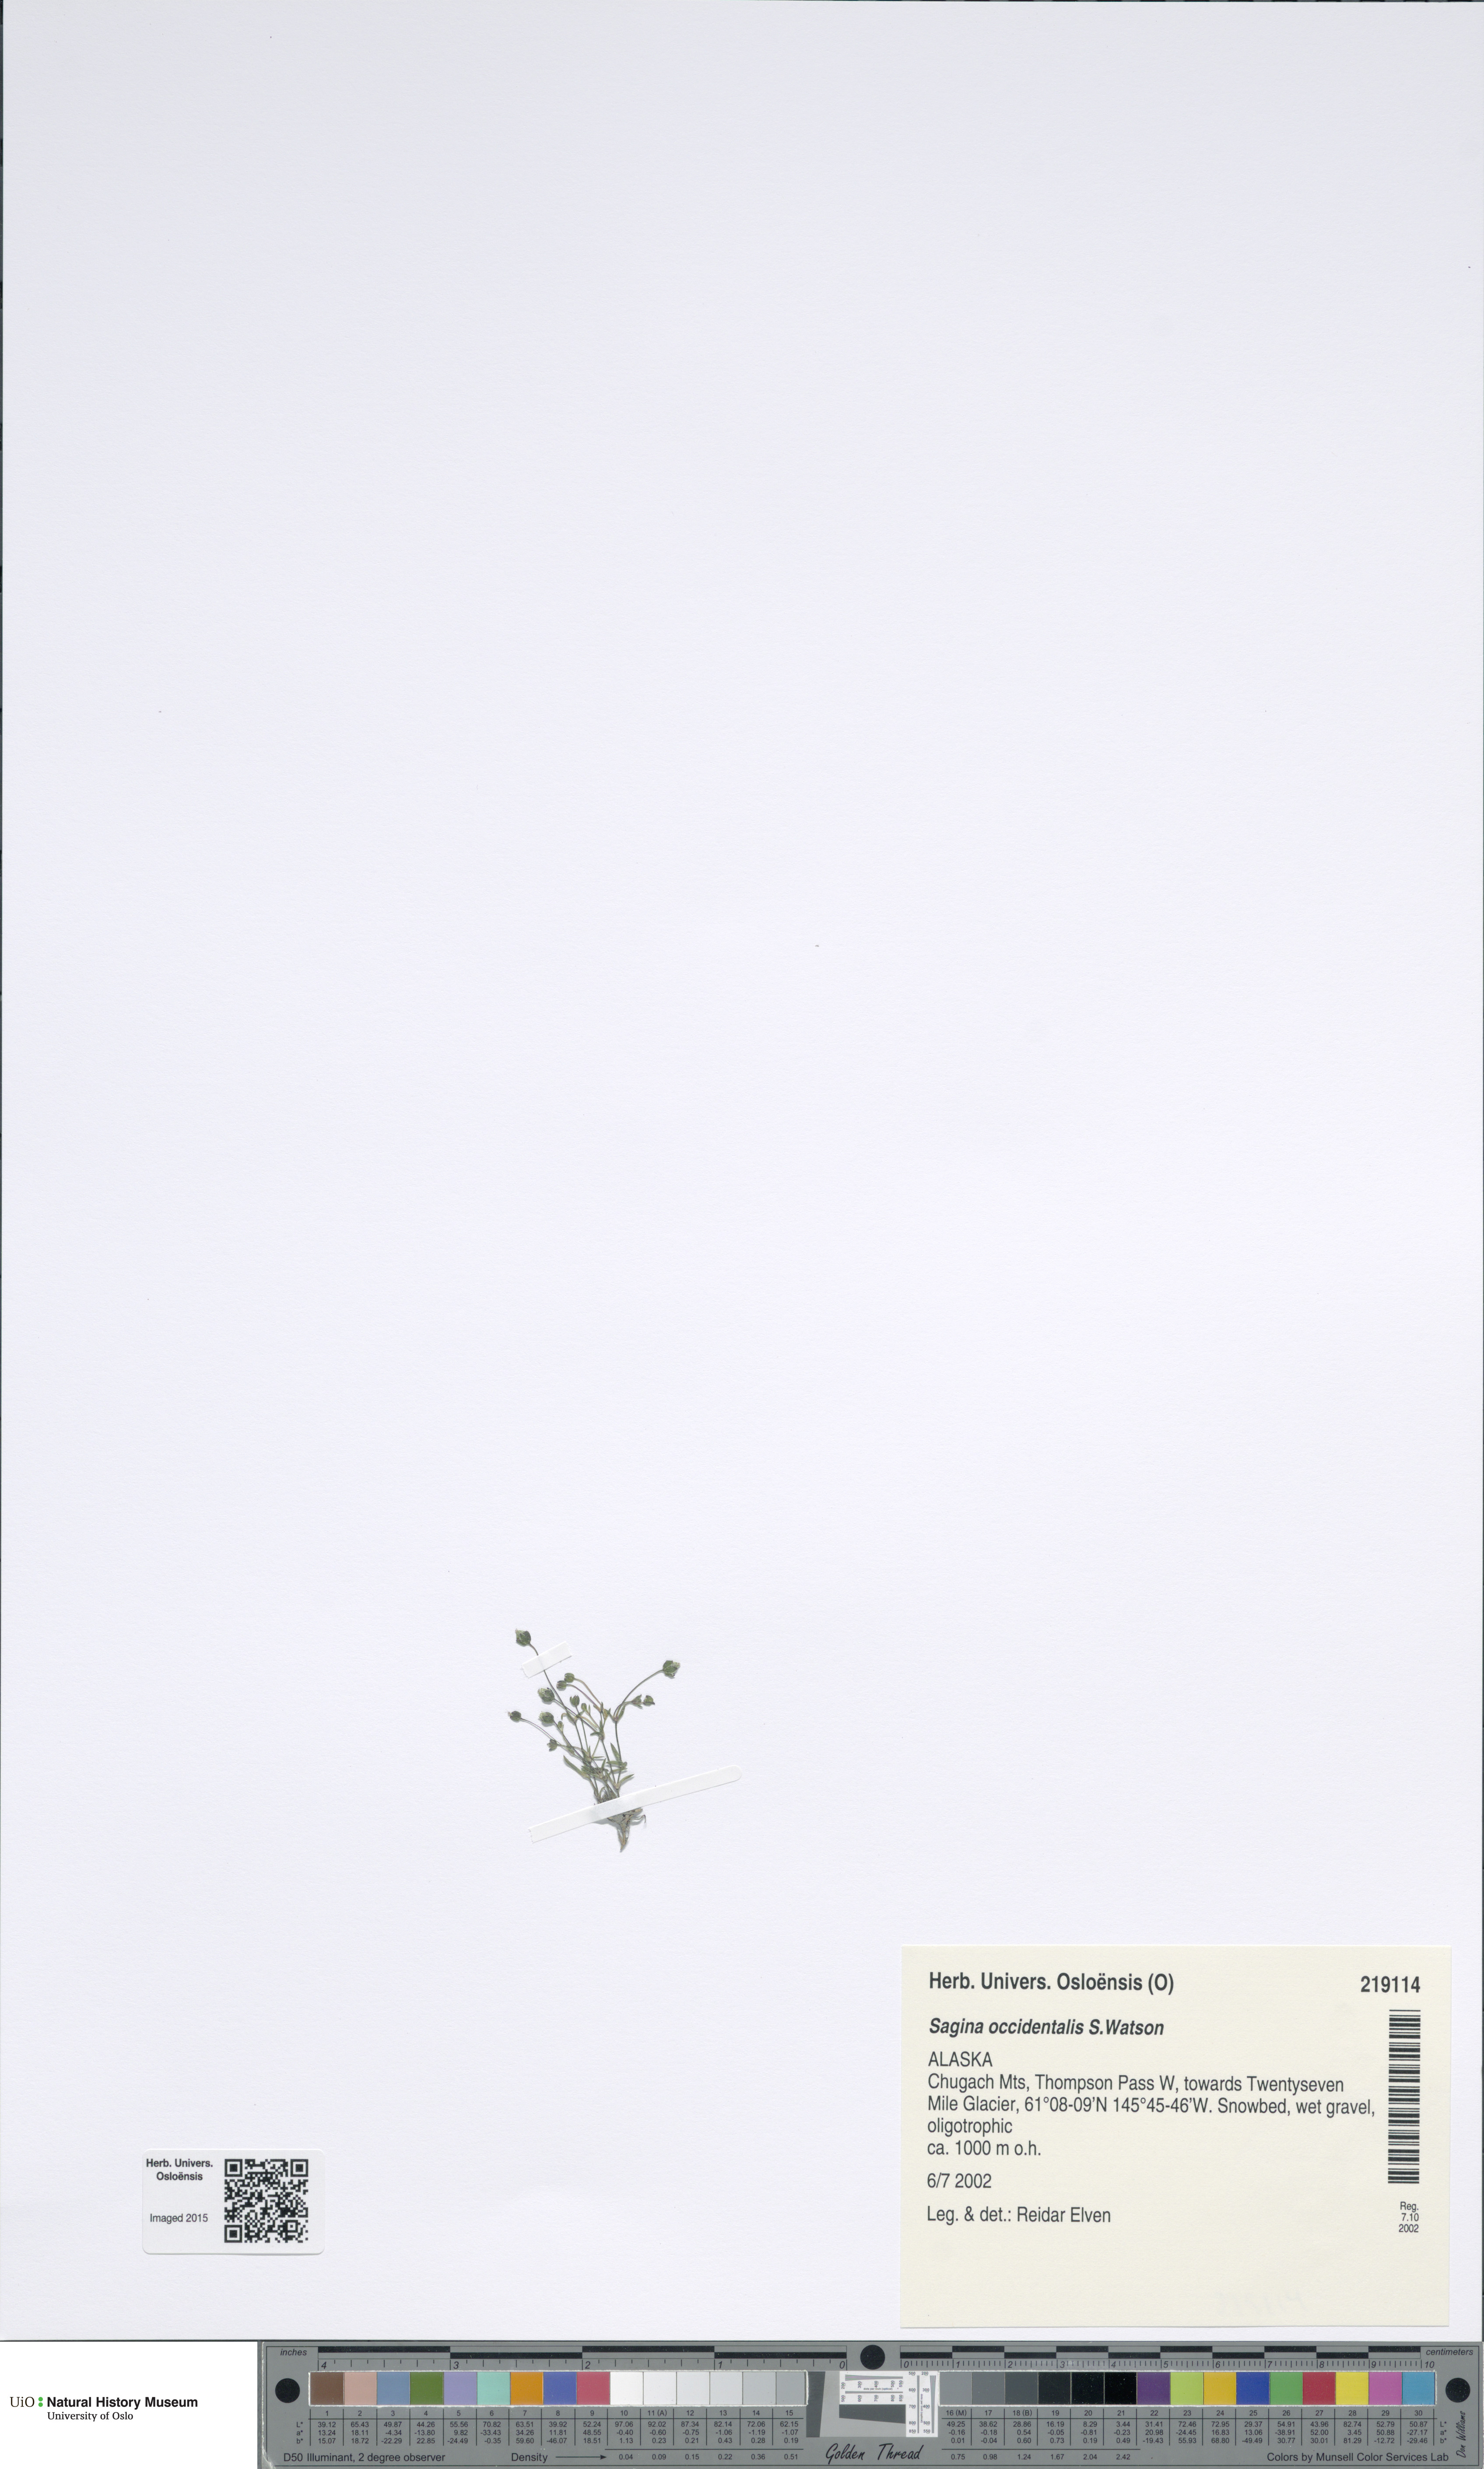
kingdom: Plantae
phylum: Tracheophyta
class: Magnoliopsida
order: Caryophyllales
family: Caryophyllaceae
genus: Sagina
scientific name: Sagina decumbens
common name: Decumbent pearlwort
